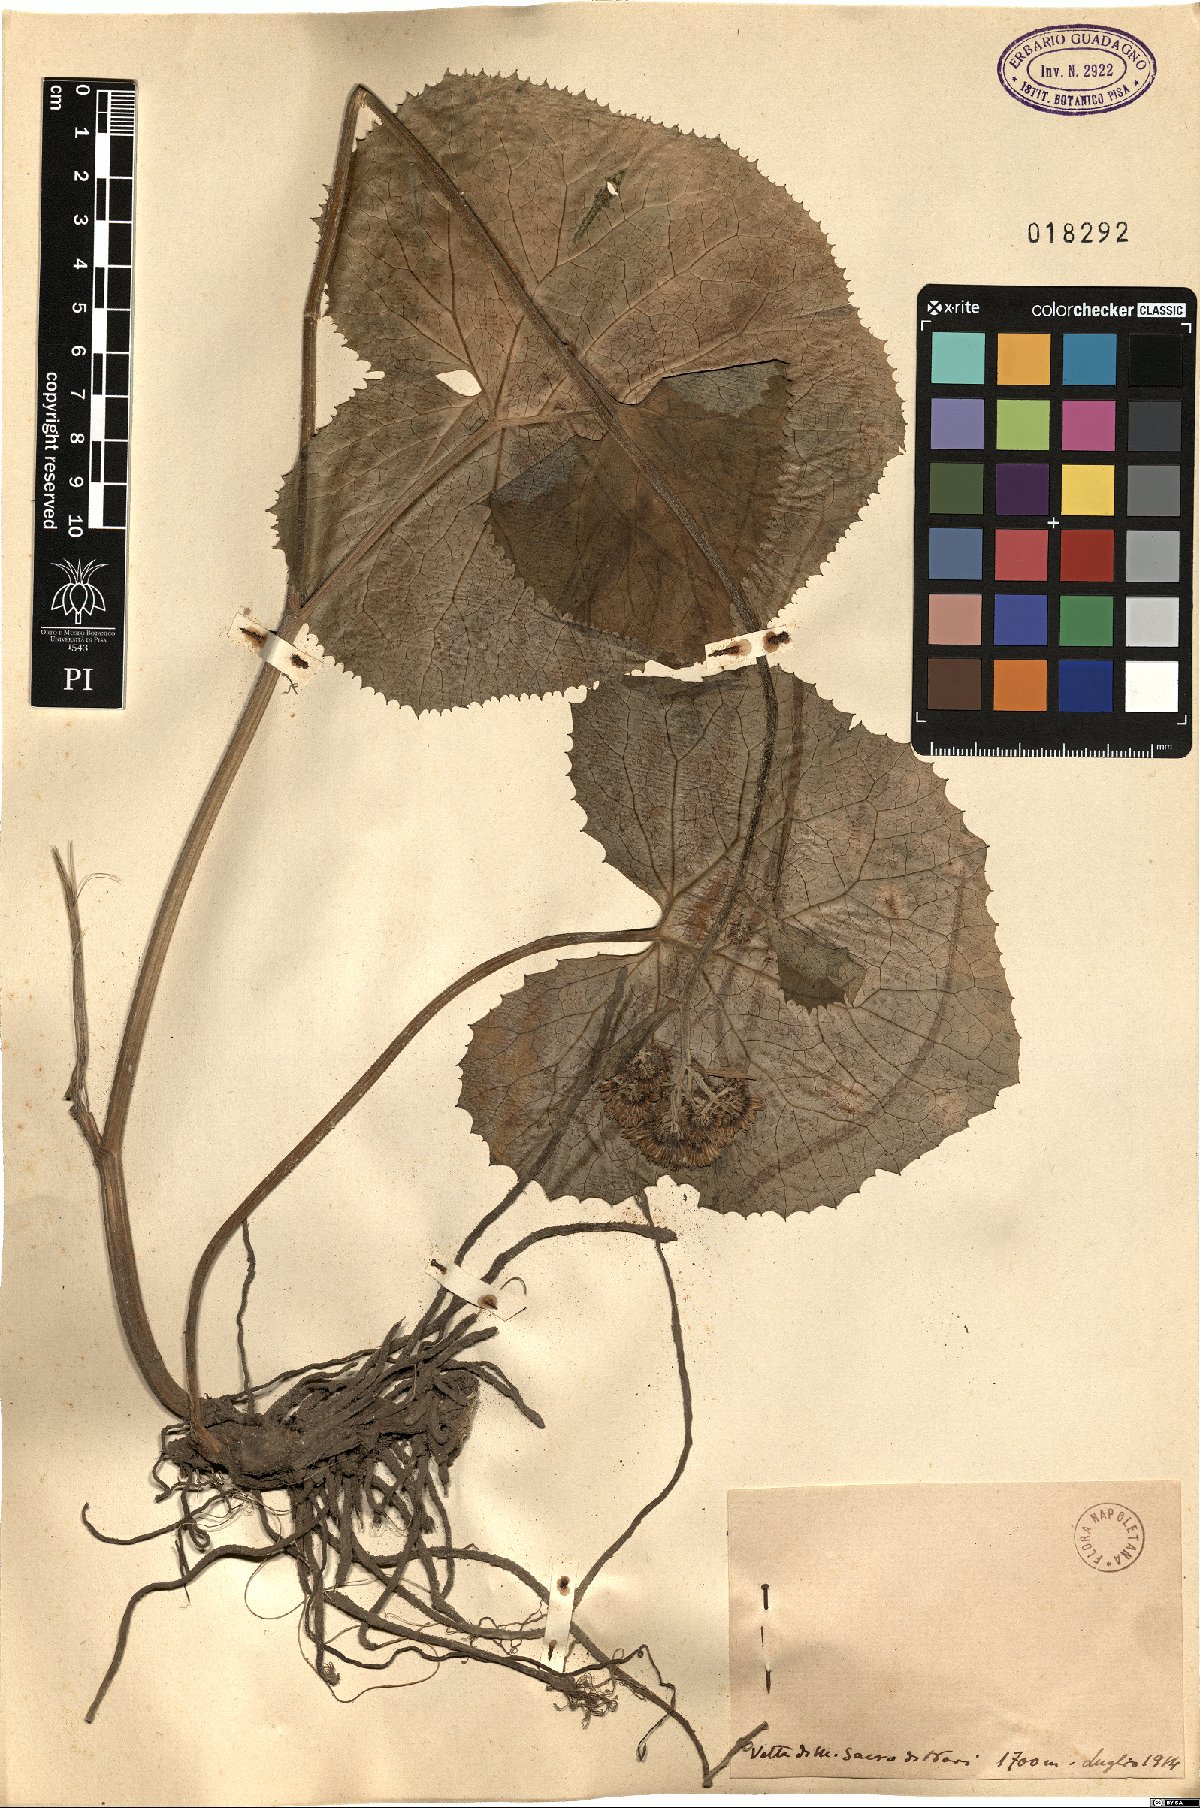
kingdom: Plantae
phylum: Tracheophyta
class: Magnoliopsida
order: Asterales
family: Asteraceae
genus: Adenostyles
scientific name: Adenostyles
